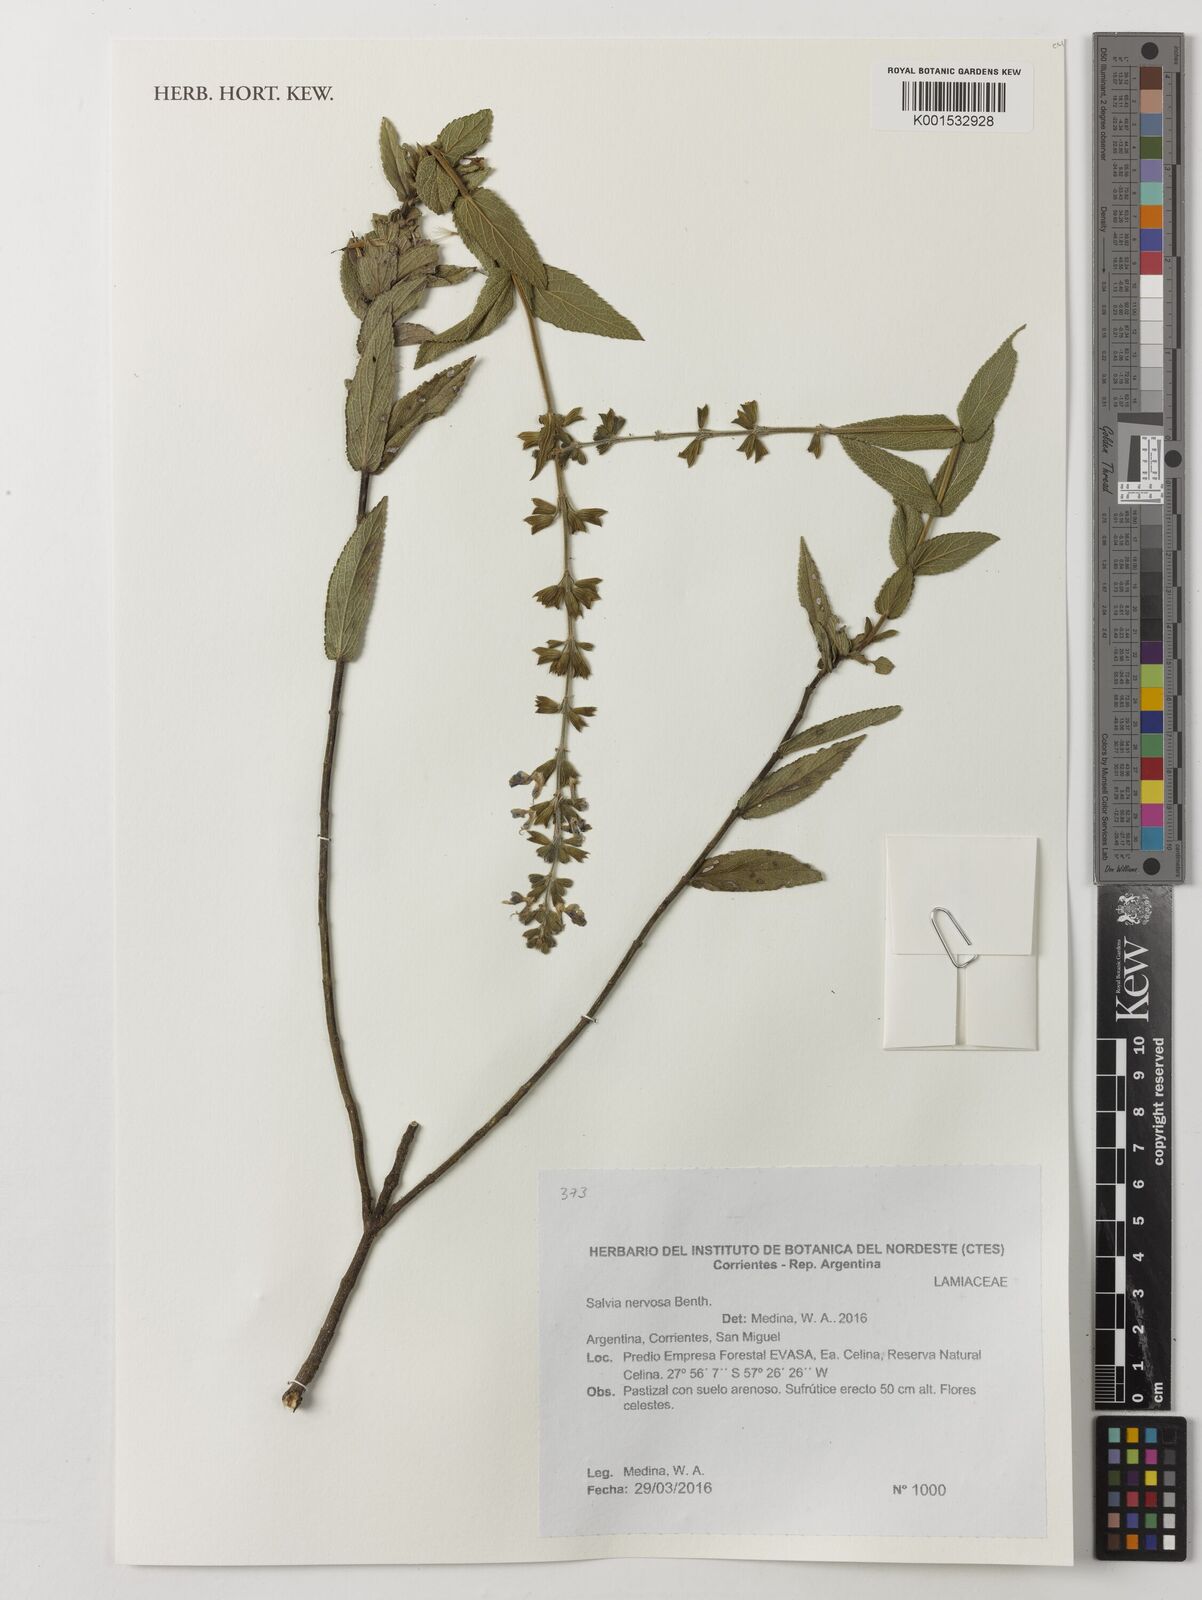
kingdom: Plantae
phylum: Tracheophyta
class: Magnoliopsida
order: Lamiales
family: Lamiaceae
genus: Salvia
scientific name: Salvia nervosa
